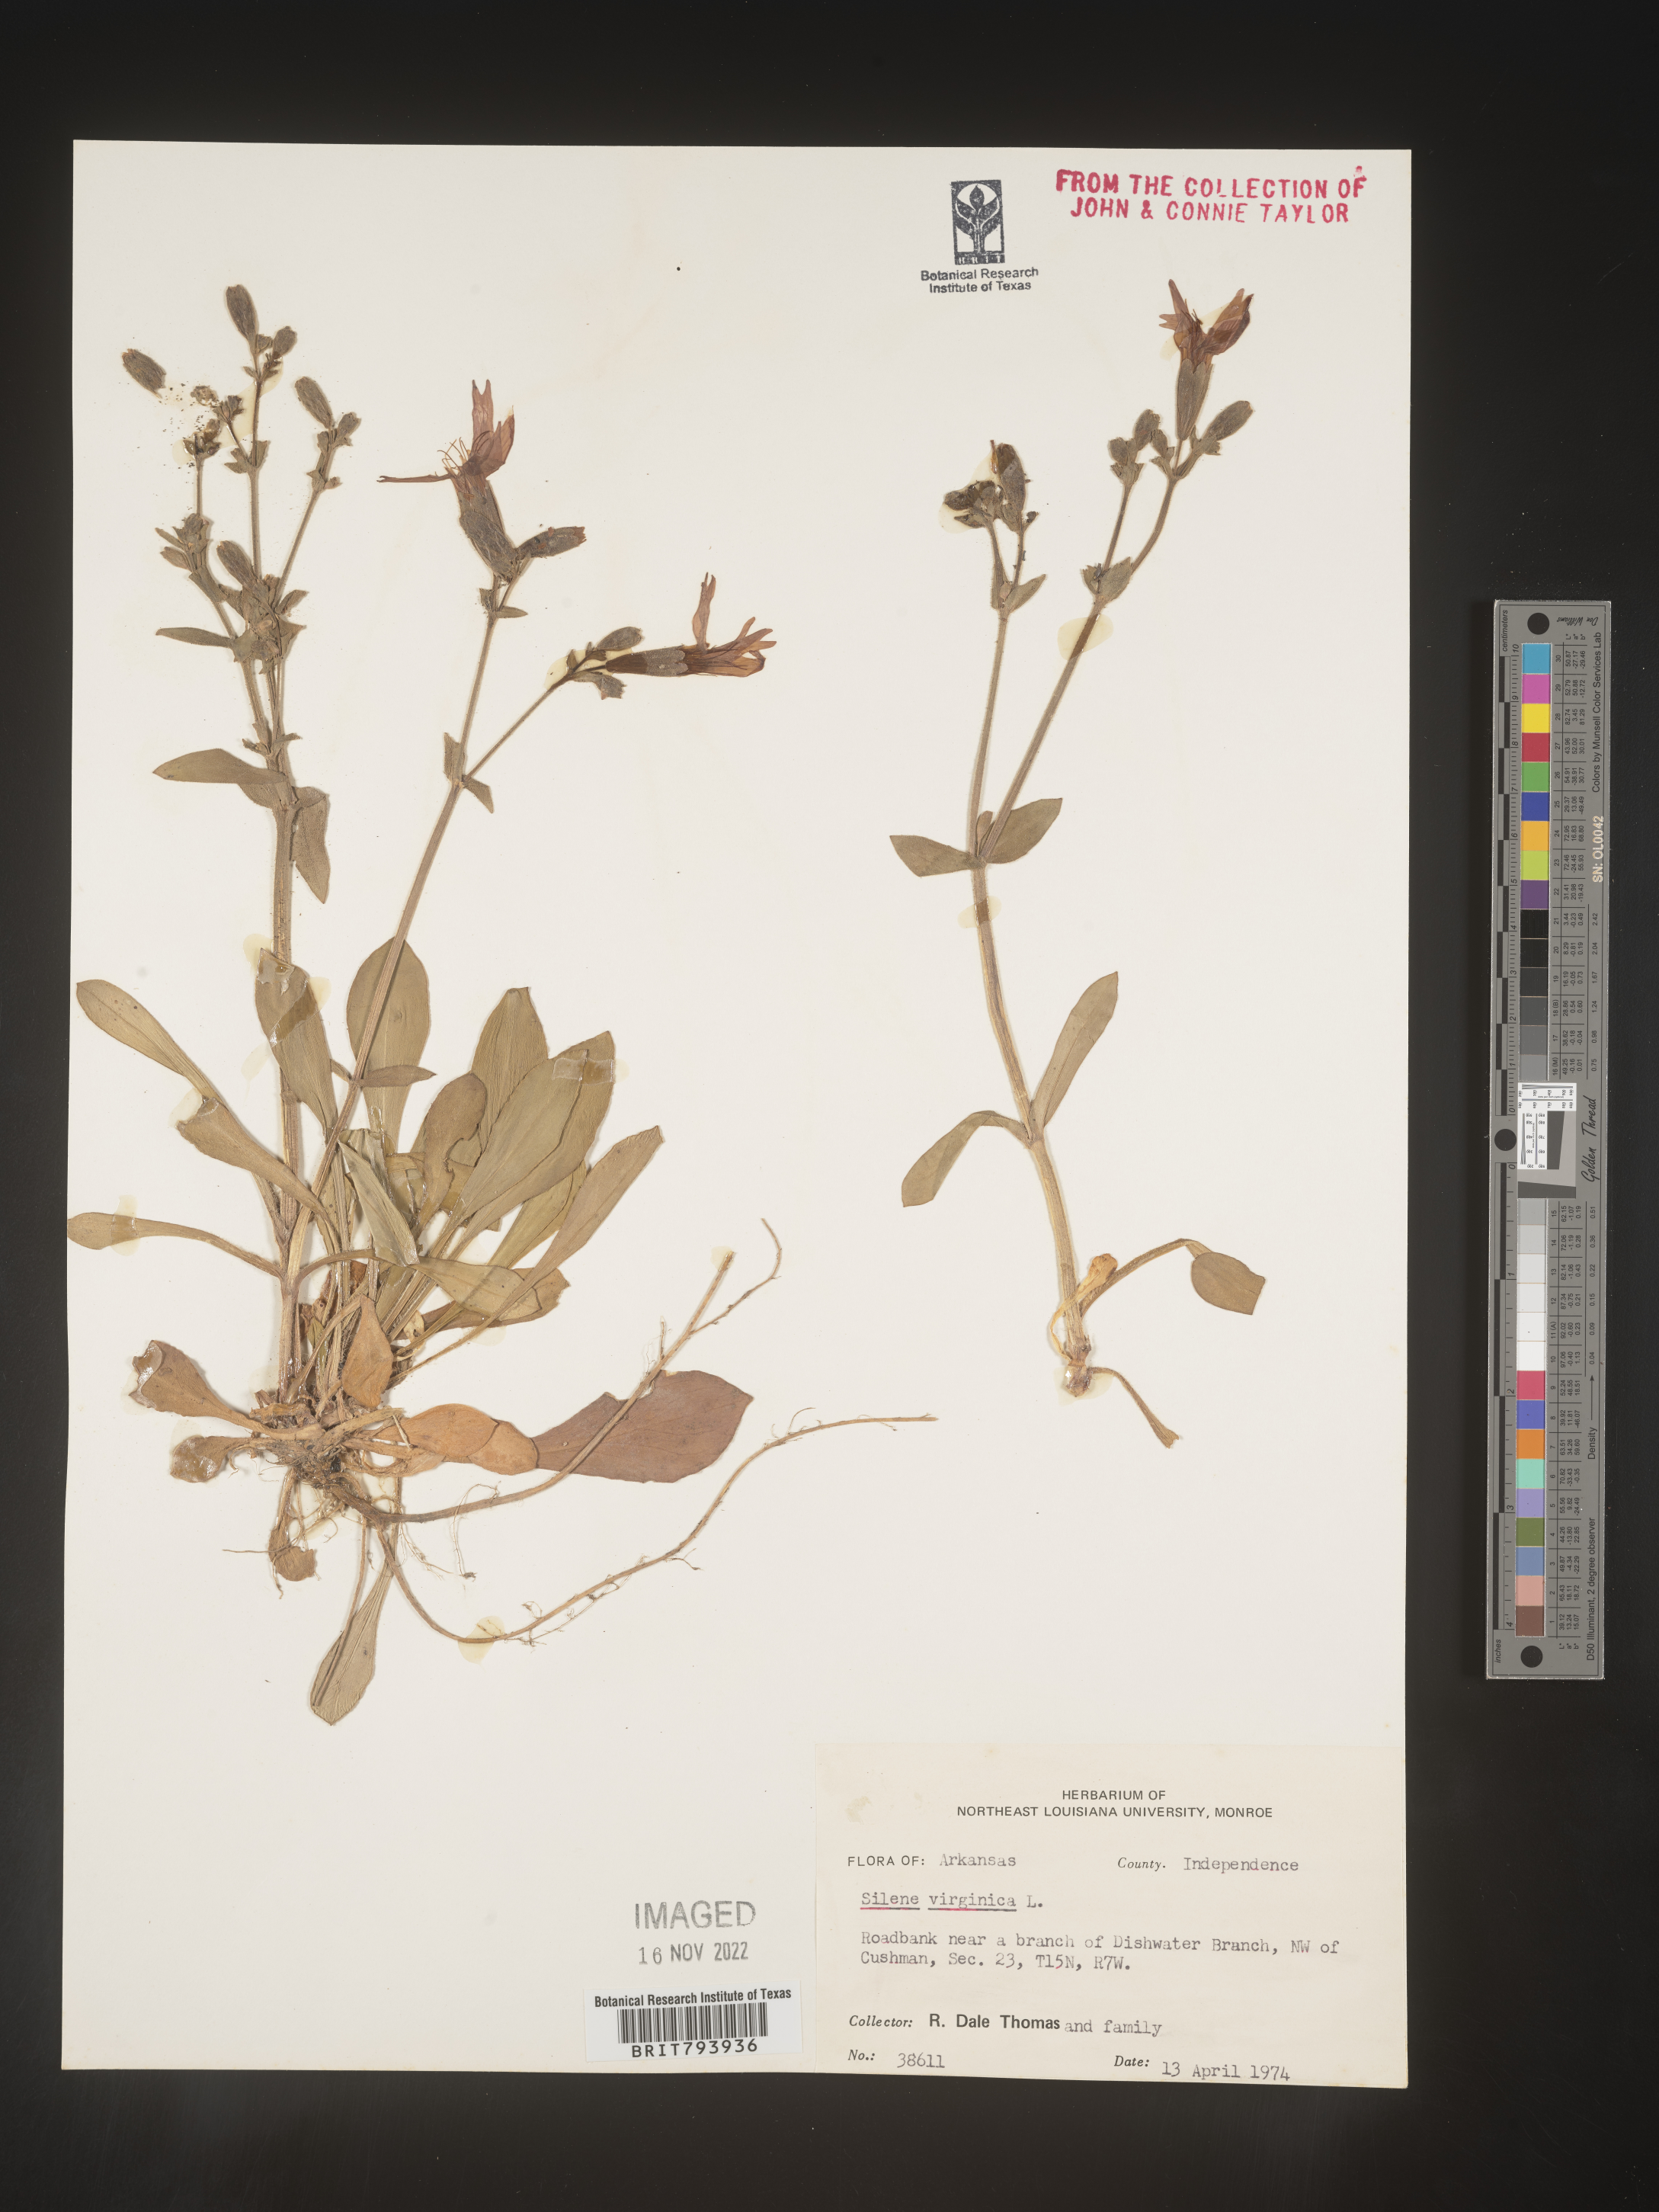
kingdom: Plantae
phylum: Tracheophyta
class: Magnoliopsida
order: Caryophyllales
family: Caryophyllaceae
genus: Silene
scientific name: Silene virginica
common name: Fire-pink
